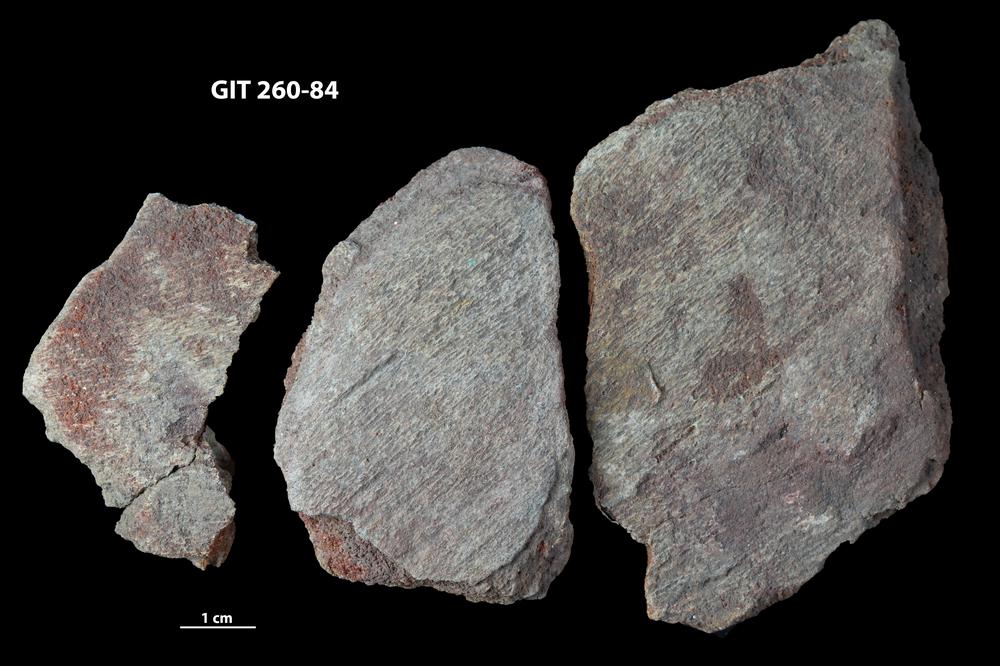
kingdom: Animalia
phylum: Chordata
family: Homostiidae
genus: Homostius
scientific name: Homostius
